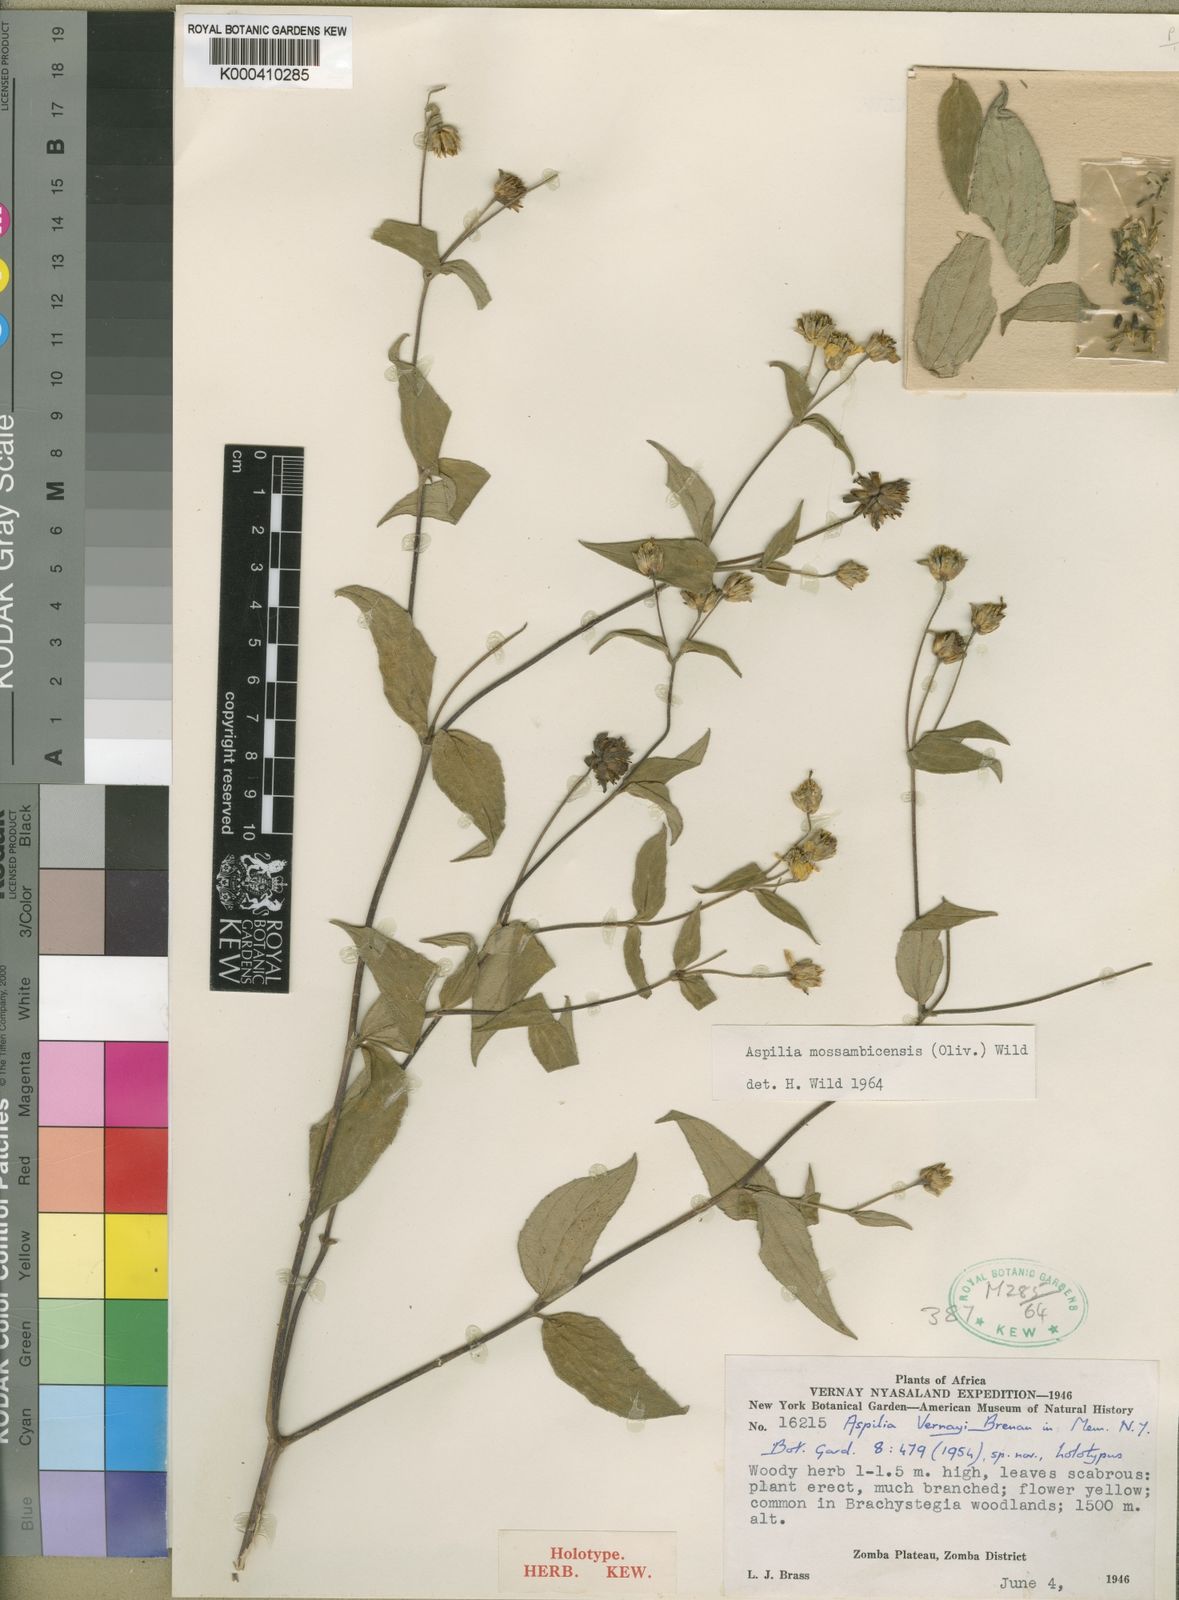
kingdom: Plantae
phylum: Tracheophyta
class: Magnoliopsida
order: Asterales
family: Asteraceae
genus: Aspilia
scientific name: Aspilia mossambicensis
